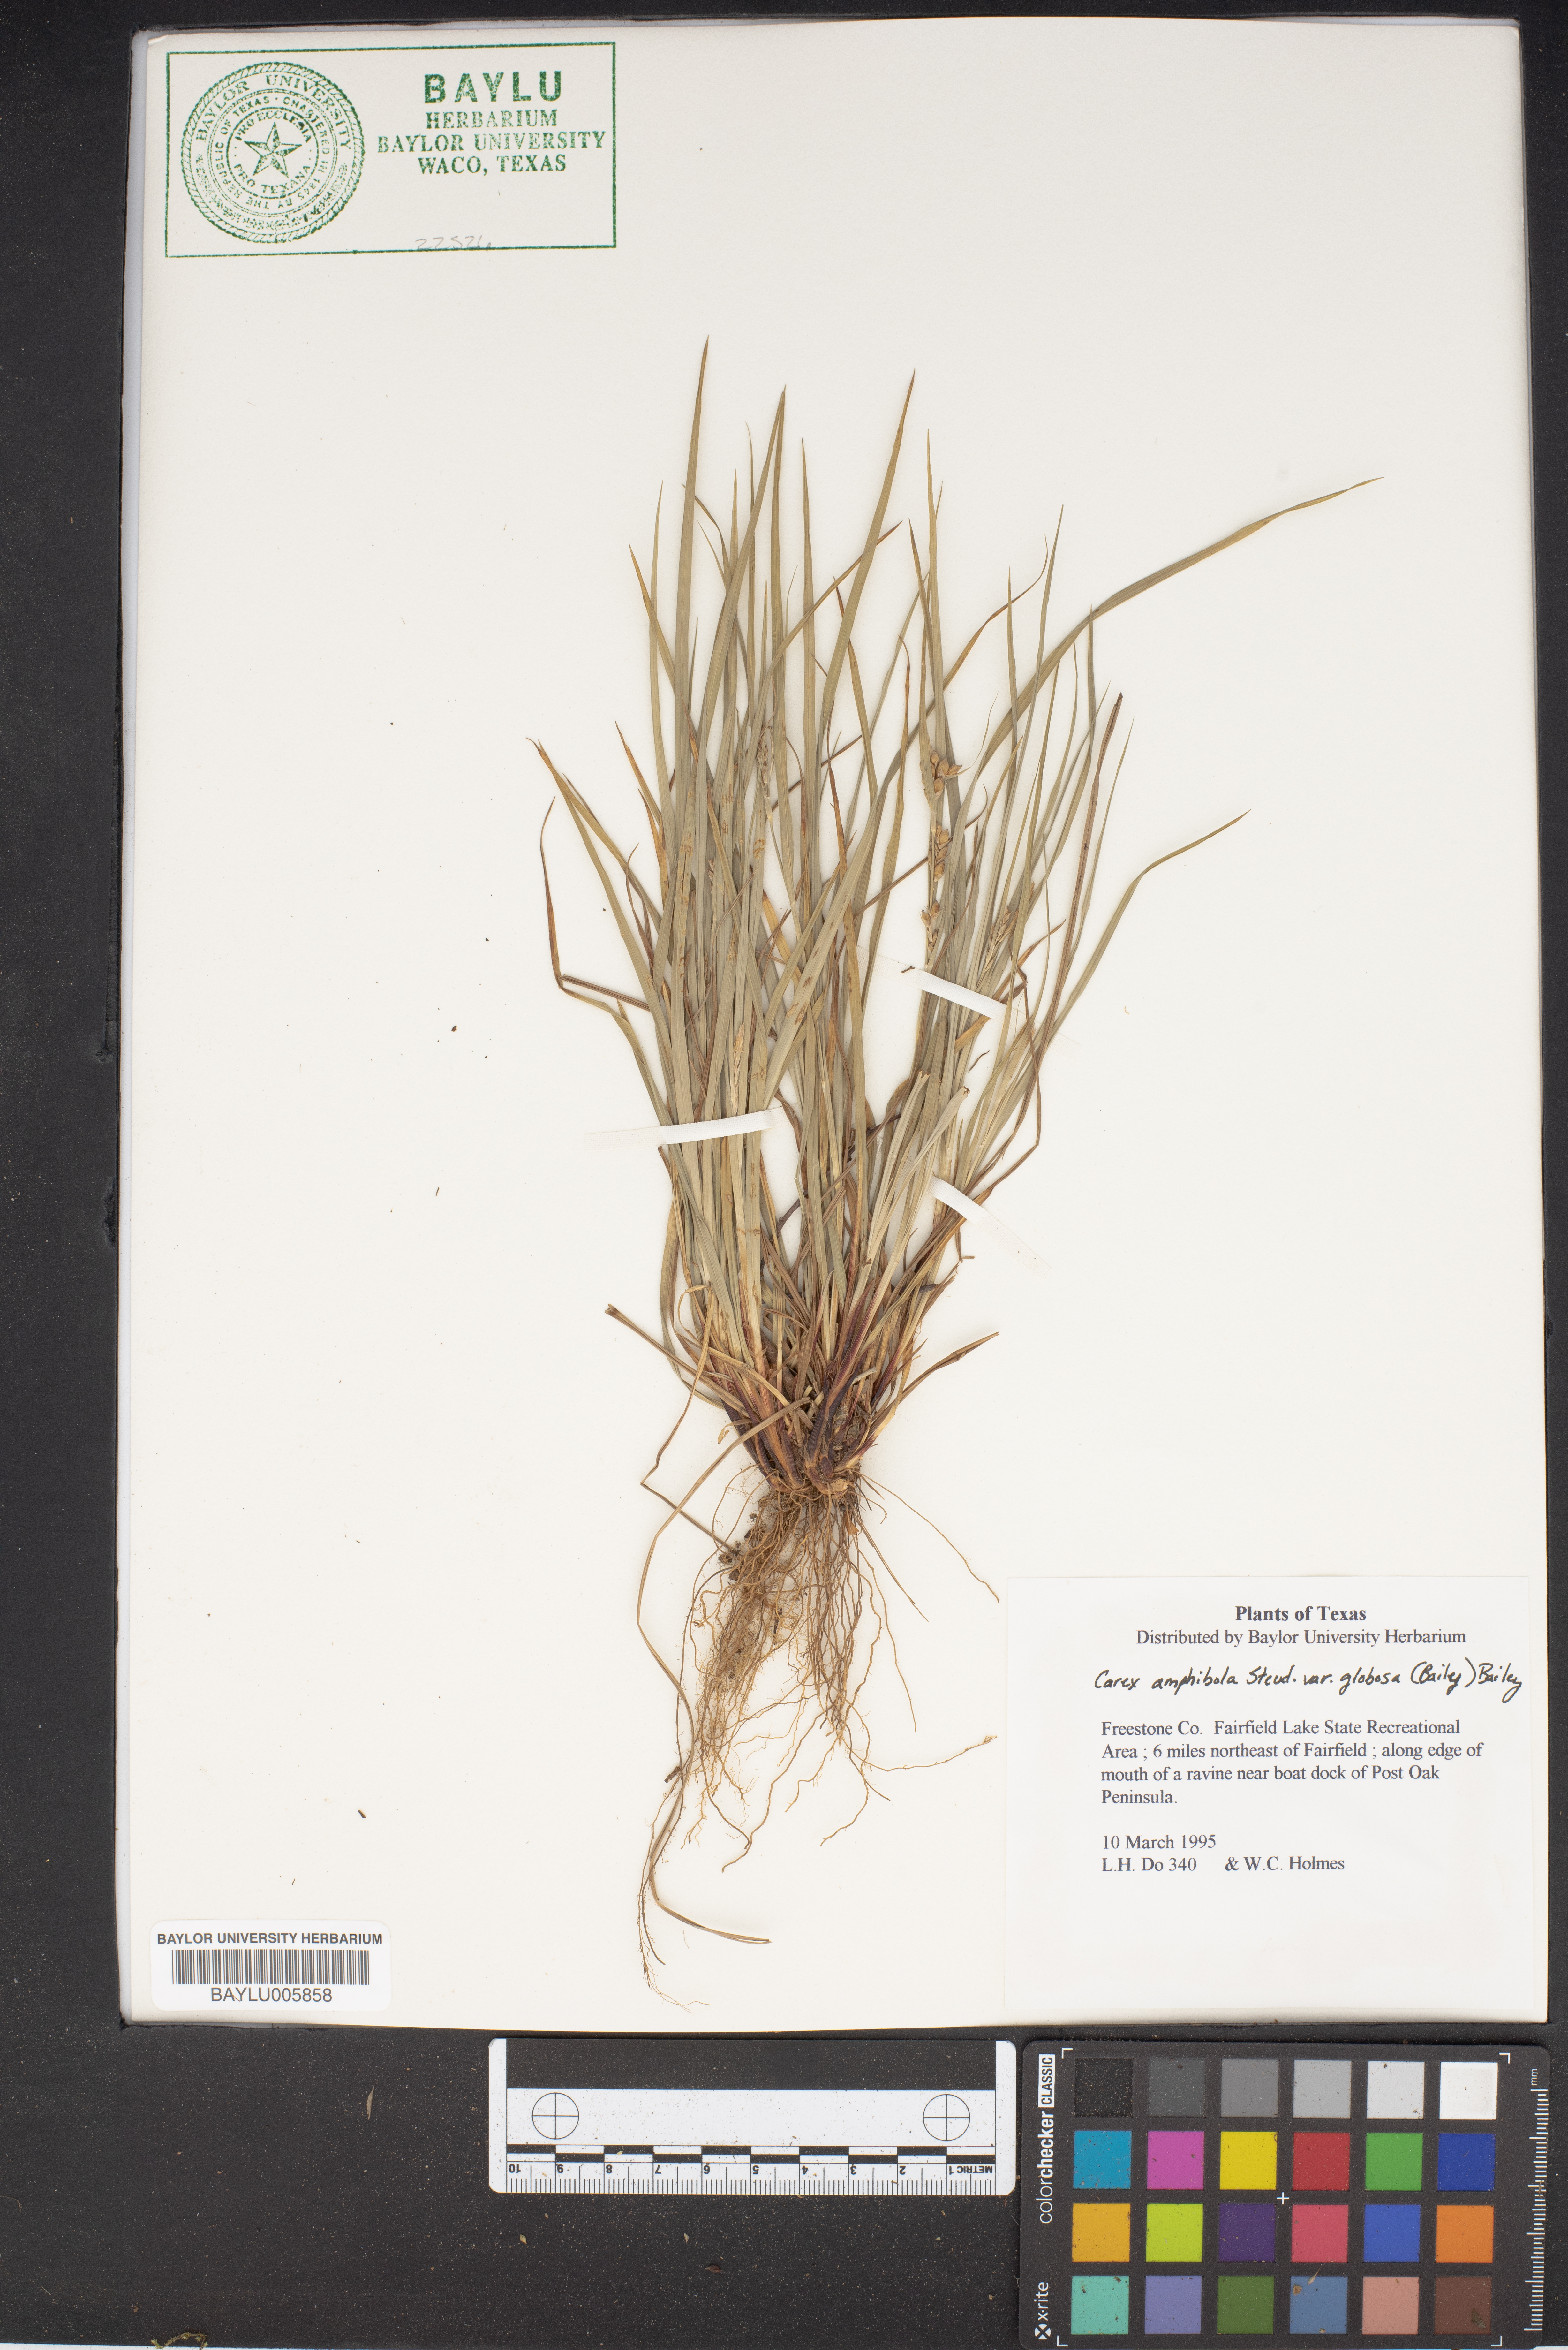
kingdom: Plantae
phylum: Tracheophyta
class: Liliopsida
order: Poales
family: Cyperaceae
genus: Carex
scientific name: Carex bulbostylis
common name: Eastern narrowleaf sedge
